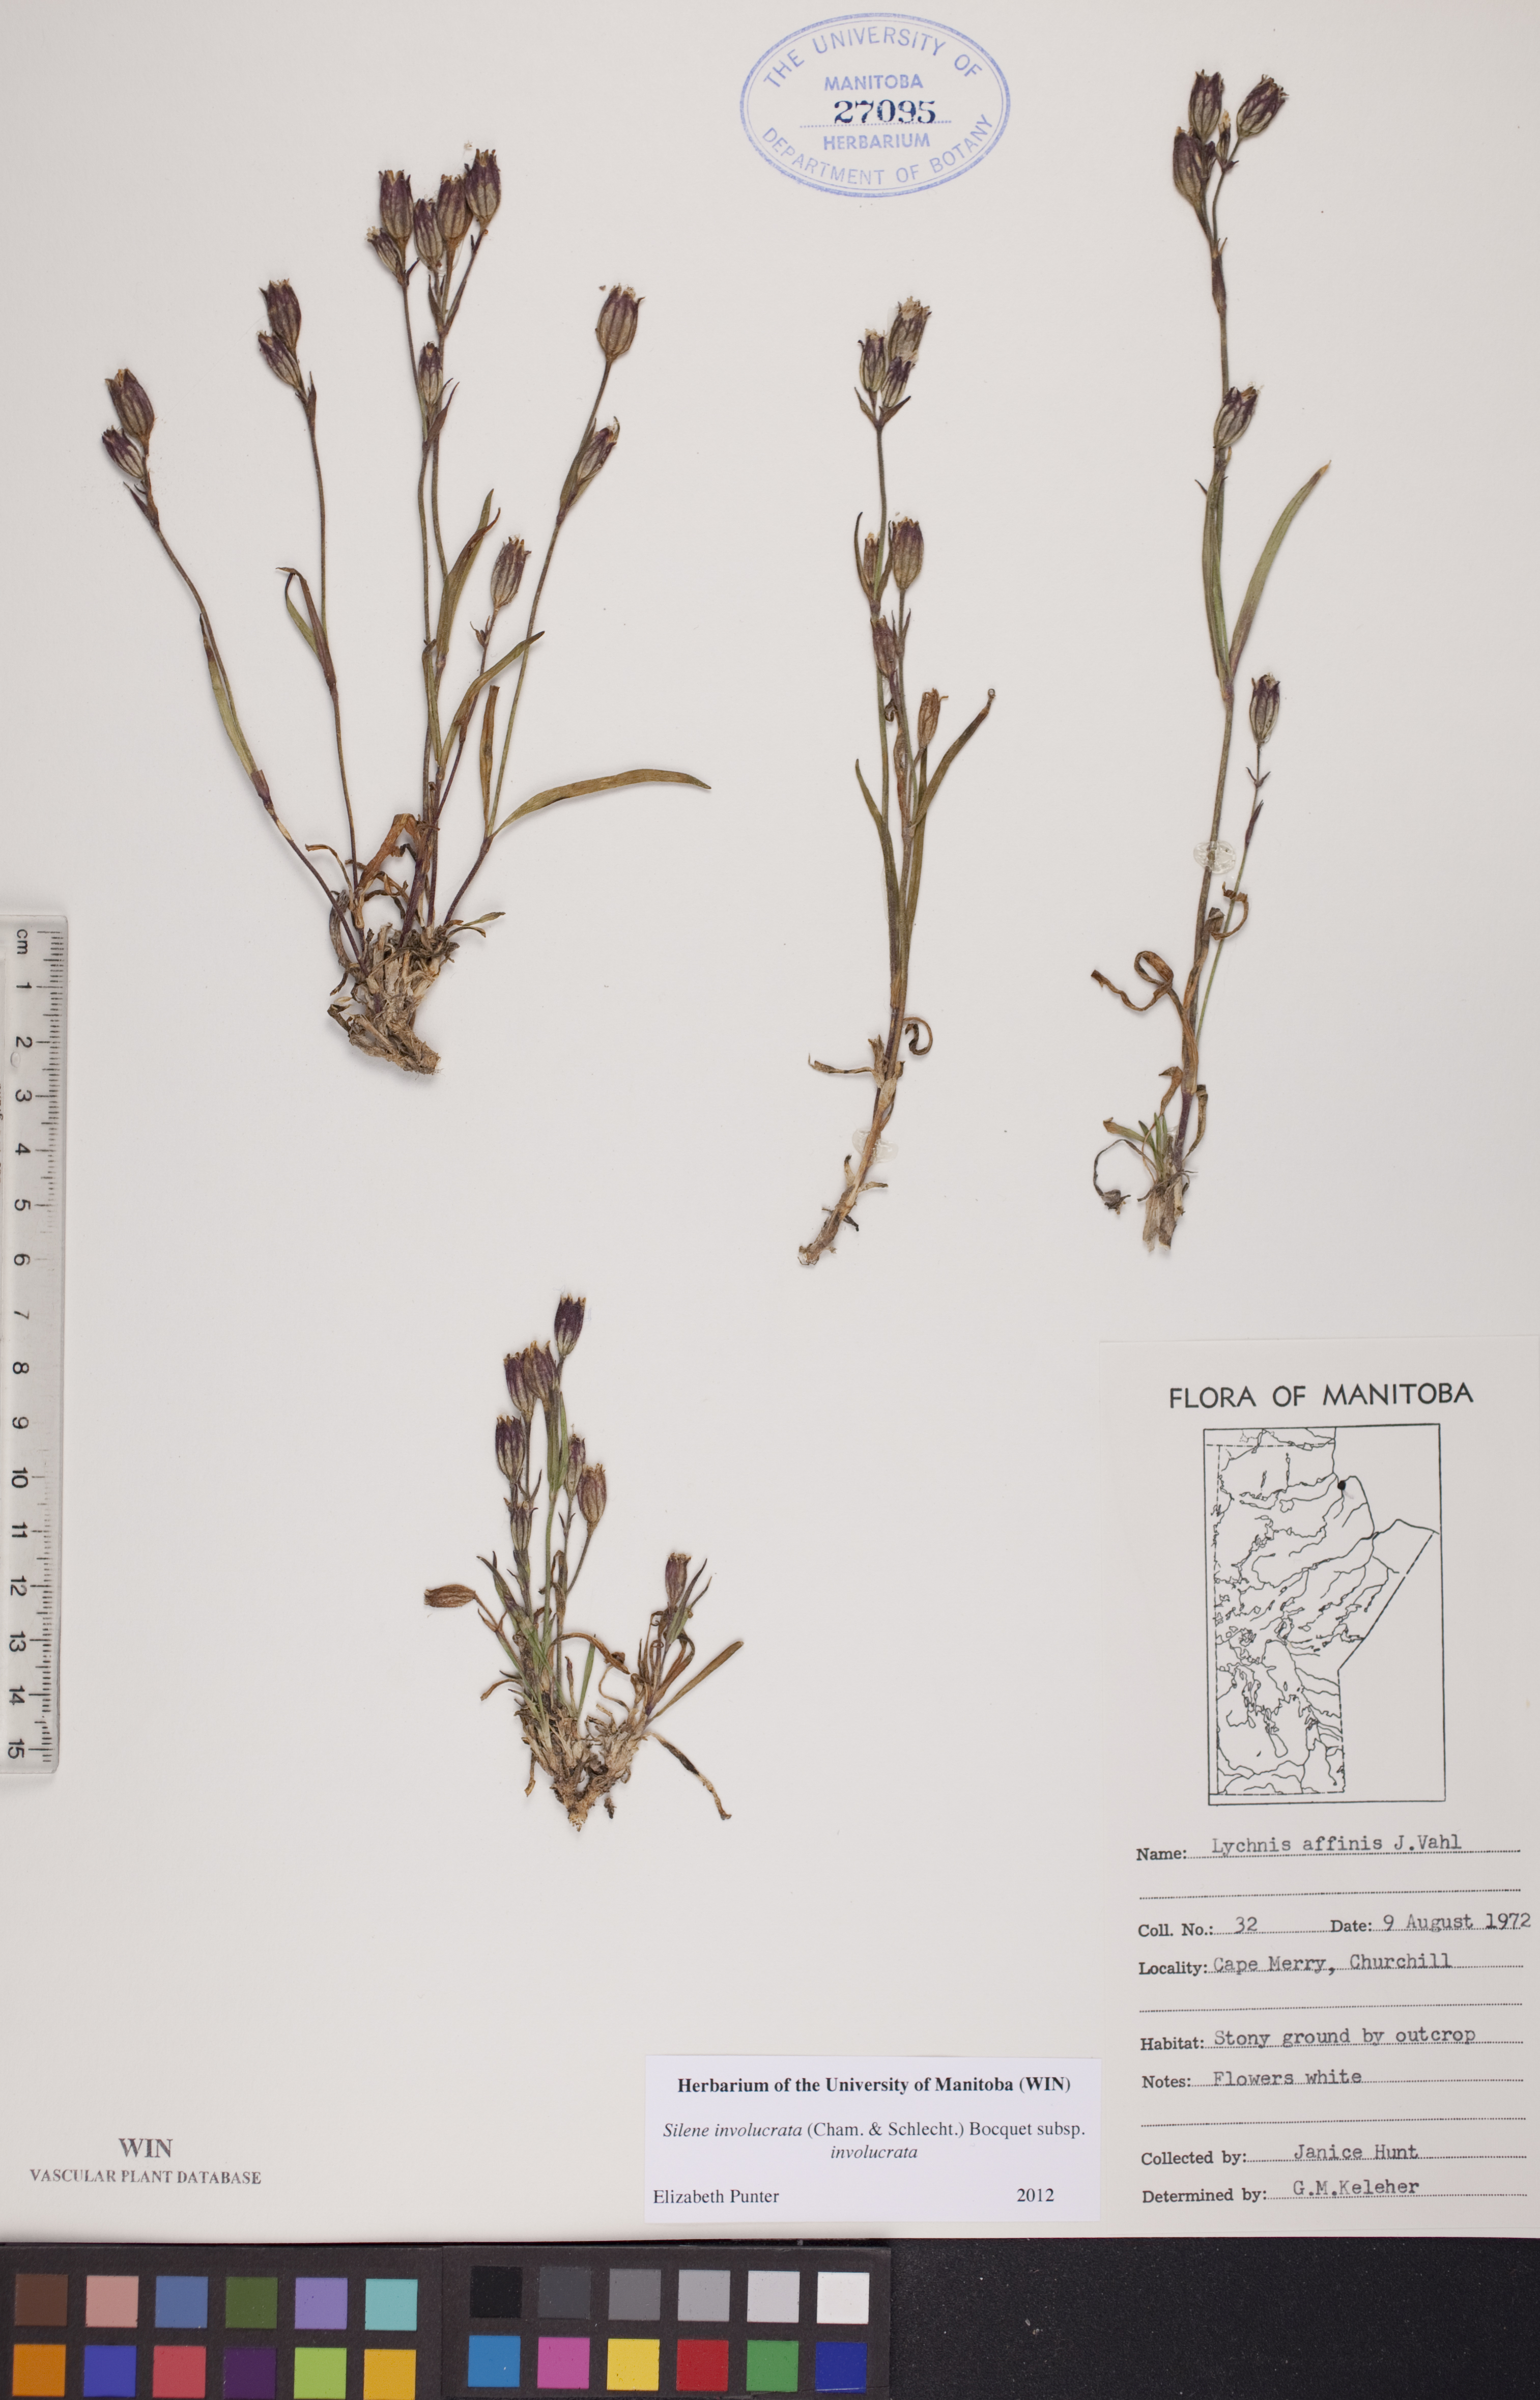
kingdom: Plantae
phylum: Tracheophyta
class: Magnoliopsida
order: Caryophyllales
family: Caryophyllaceae
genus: Silene
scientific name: Silene involucrata
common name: Greater arctic campion
